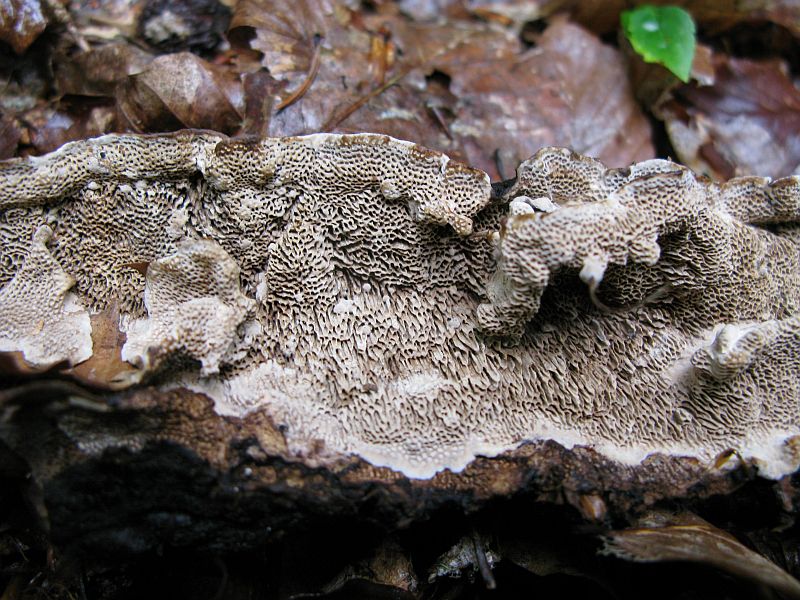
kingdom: Fungi
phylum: Basidiomycota
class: Agaricomycetes
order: Polyporales
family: Polyporaceae
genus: Podofomes
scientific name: Podofomes mollis
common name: blød begporesvamp
